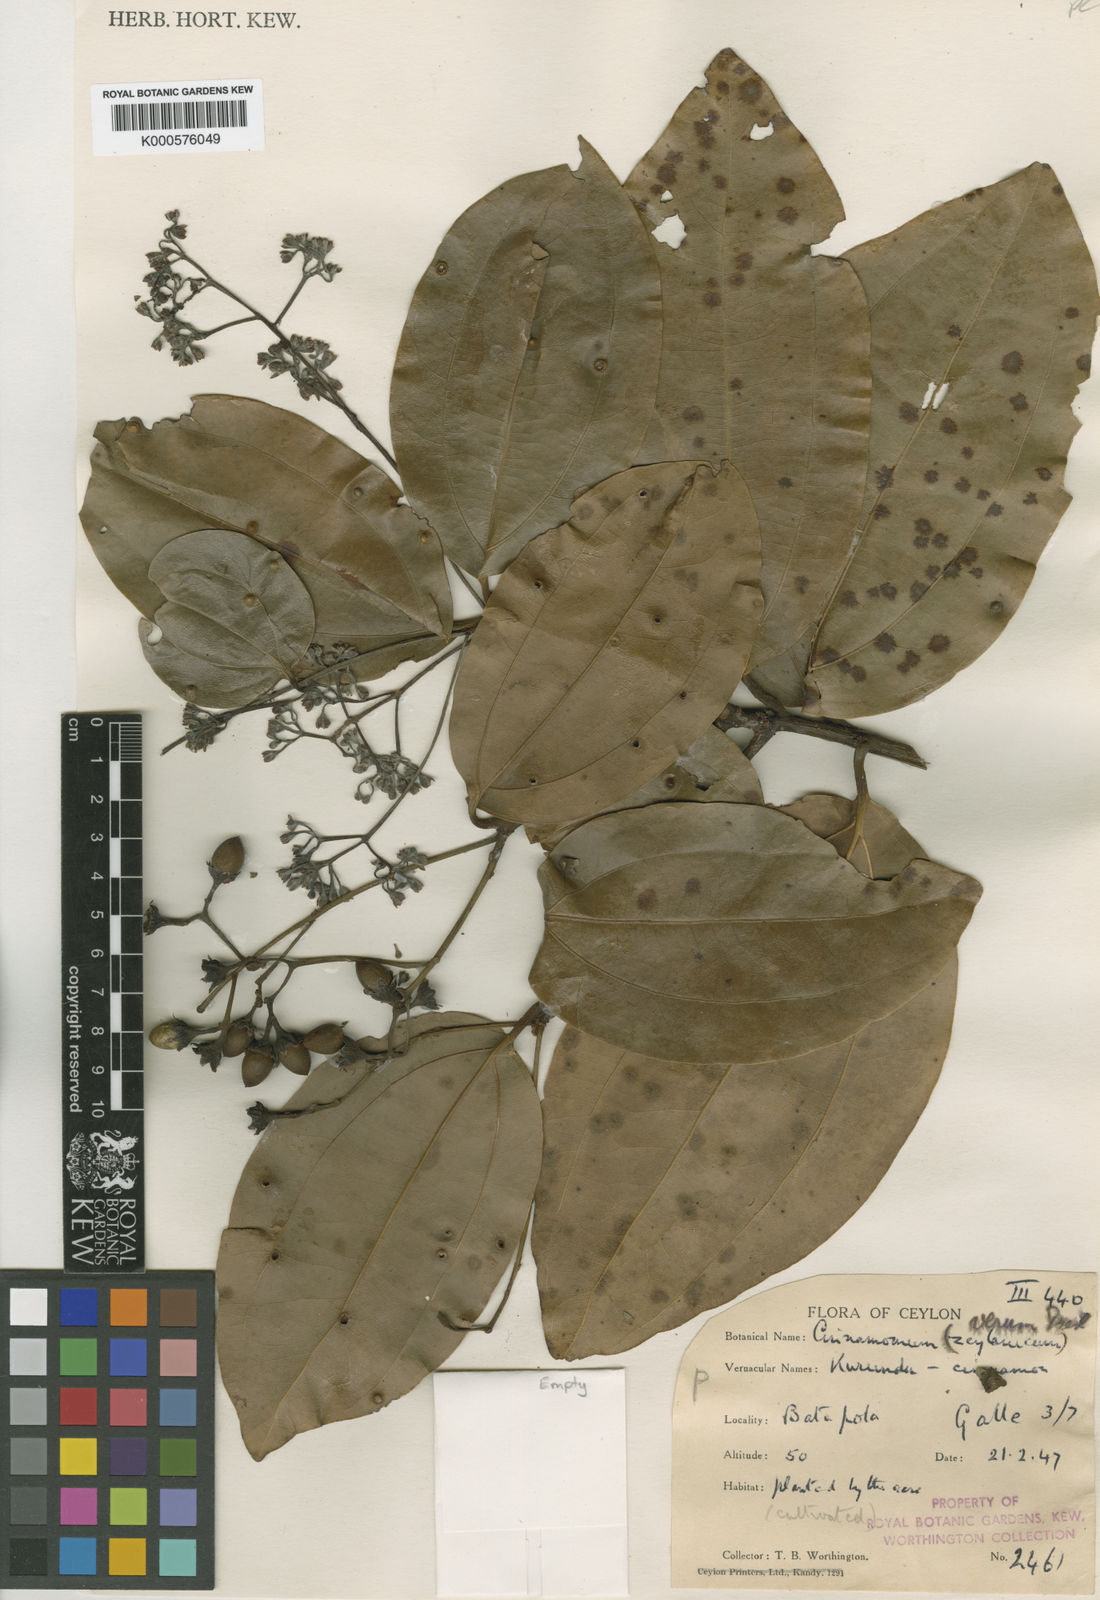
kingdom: Plantae
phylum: Tracheophyta
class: Magnoliopsida
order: Laurales
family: Lauraceae
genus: Cinnamomum
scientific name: Cinnamomum verum
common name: Cinnamon
